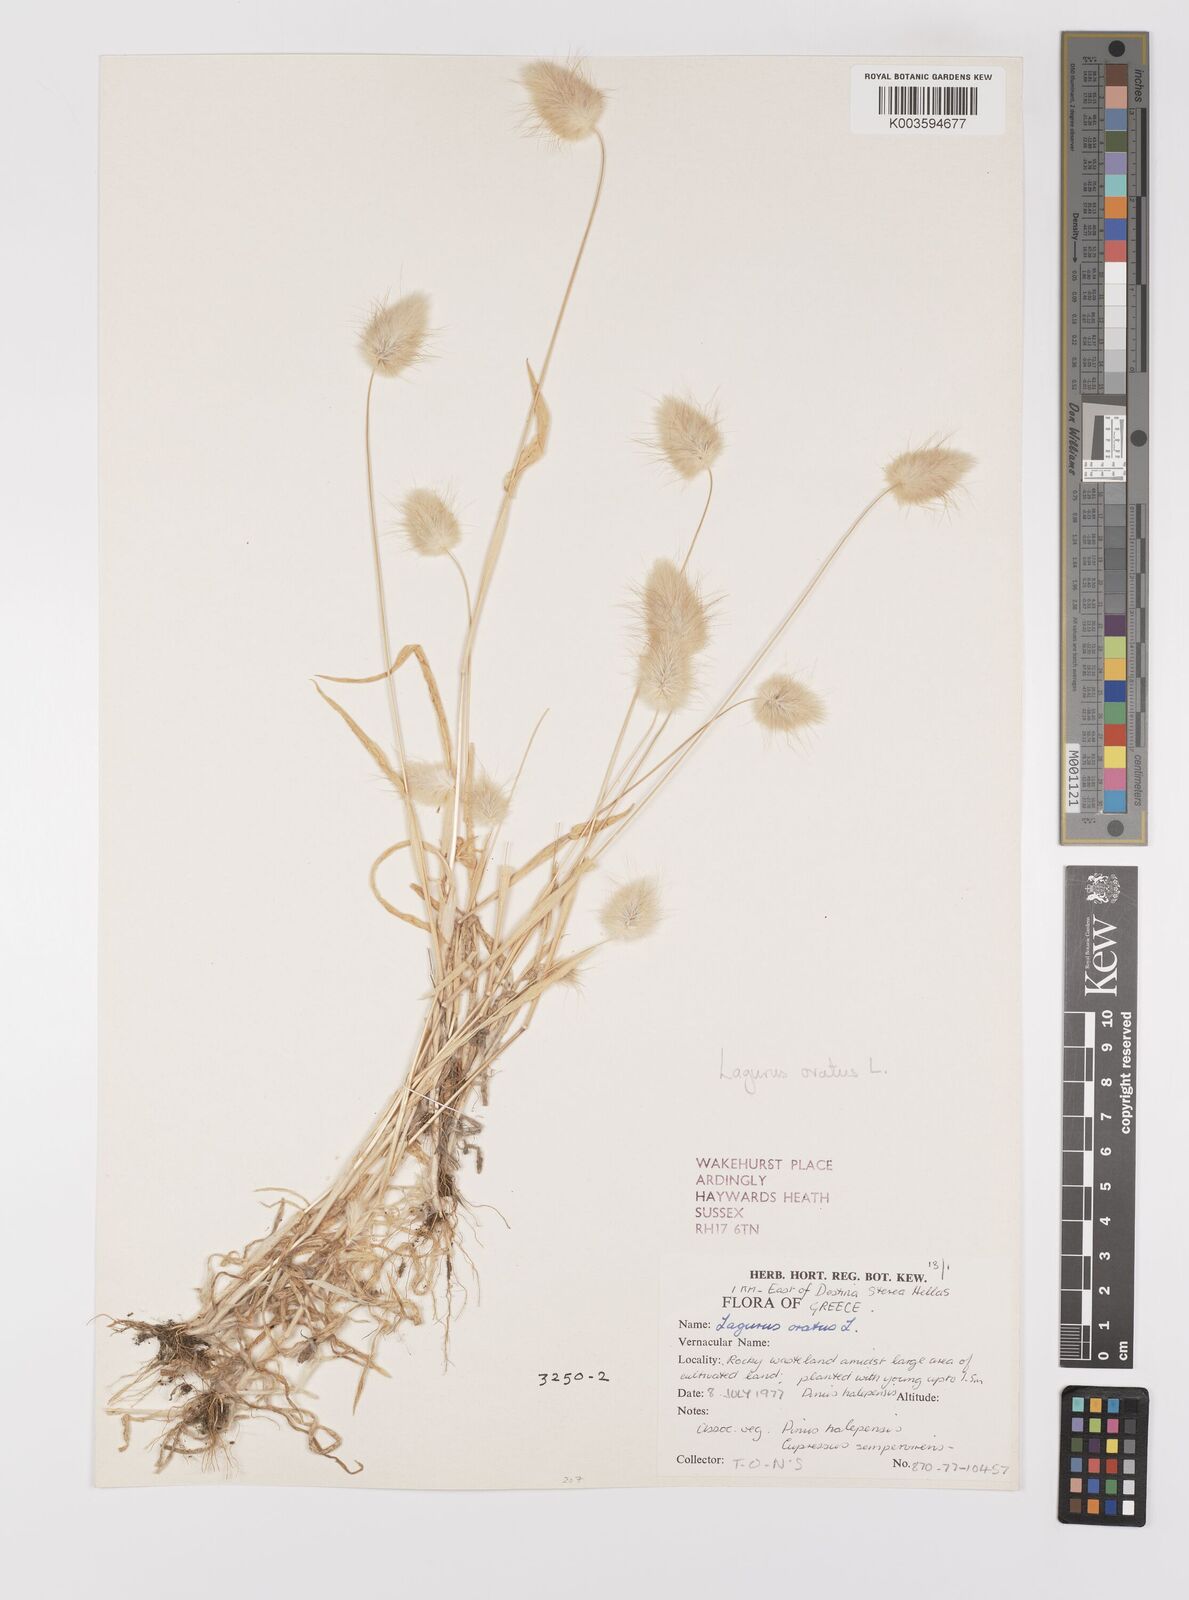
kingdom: Plantae
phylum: Tracheophyta
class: Liliopsida
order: Poales
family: Poaceae
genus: Lagurus
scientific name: Lagurus ovatus
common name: Hare's-tail
